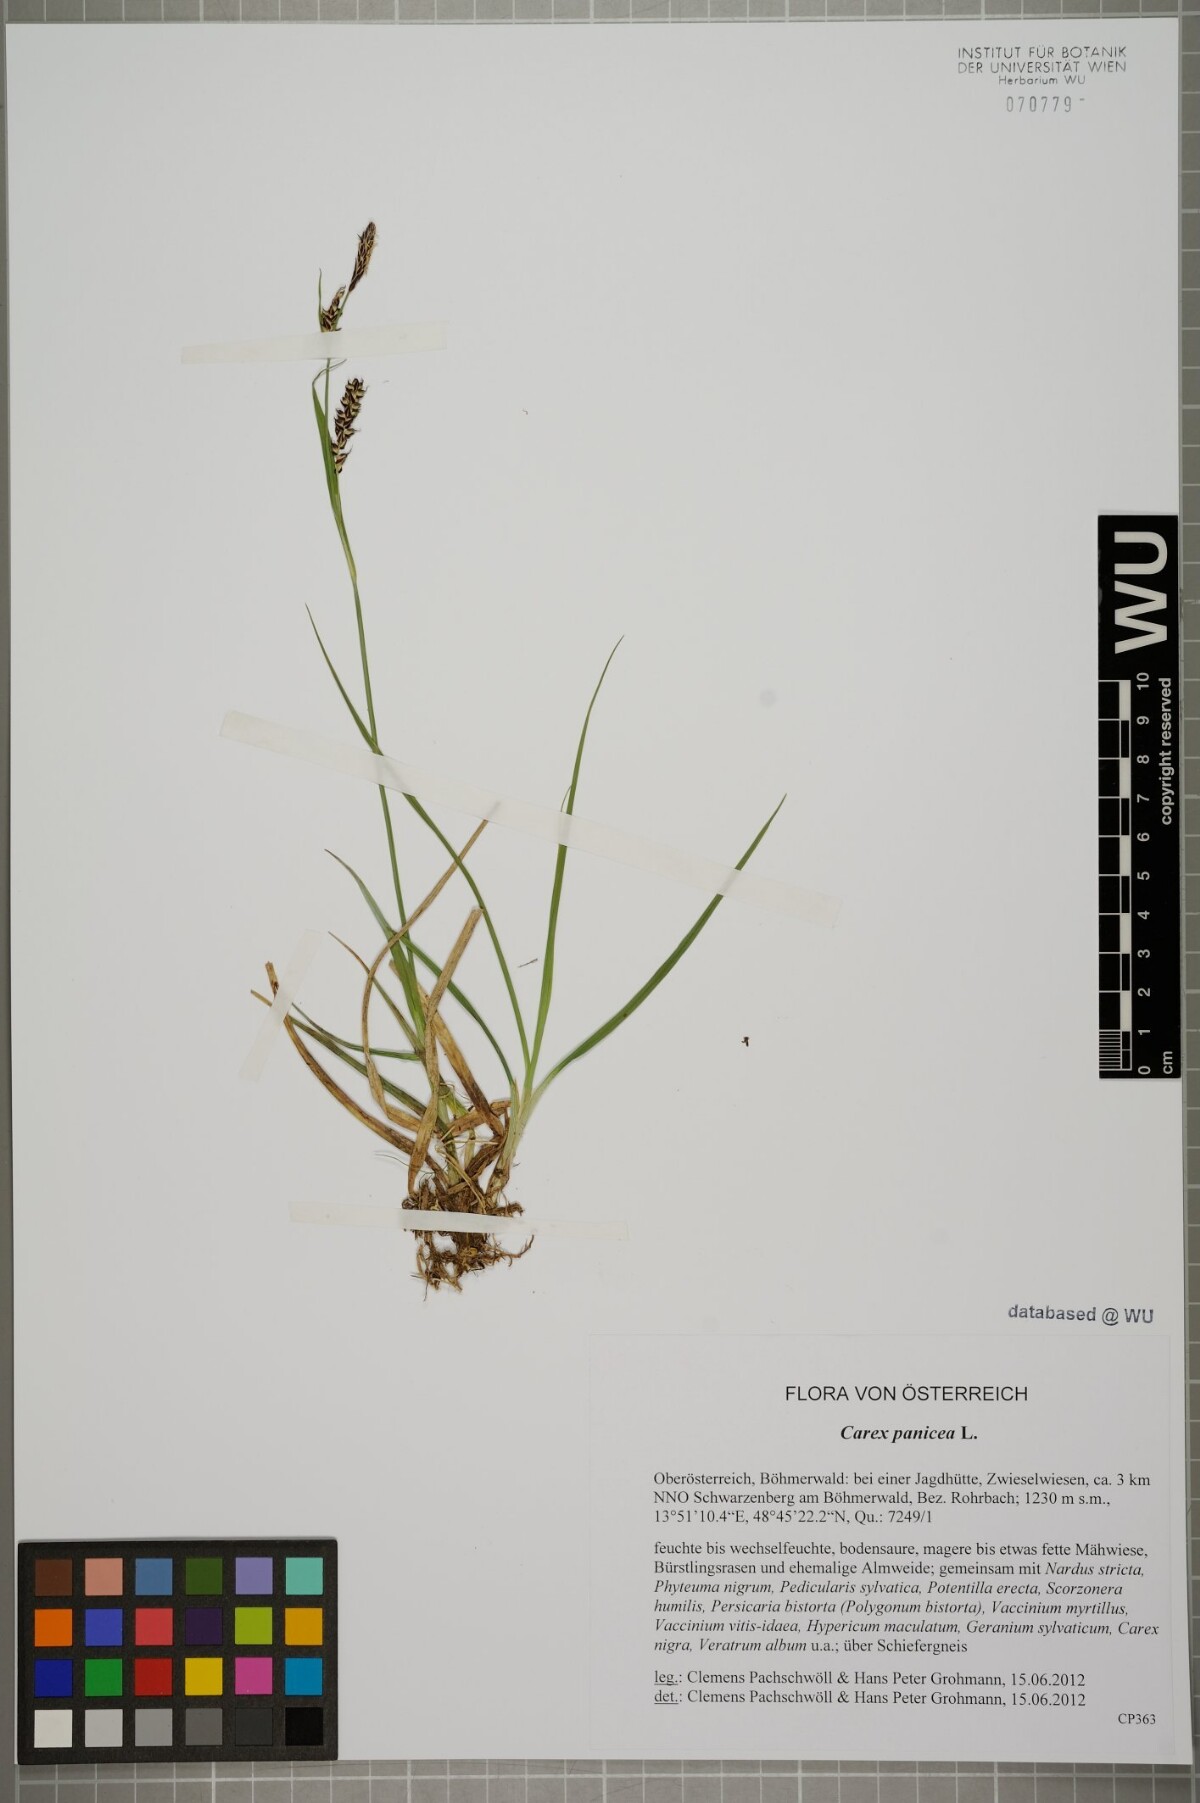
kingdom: Plantae
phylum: Tracheophyta
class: Liliopsida
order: Poales
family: Cyperaceae
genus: Carex
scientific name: Carex panicea
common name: Carnation sedge
